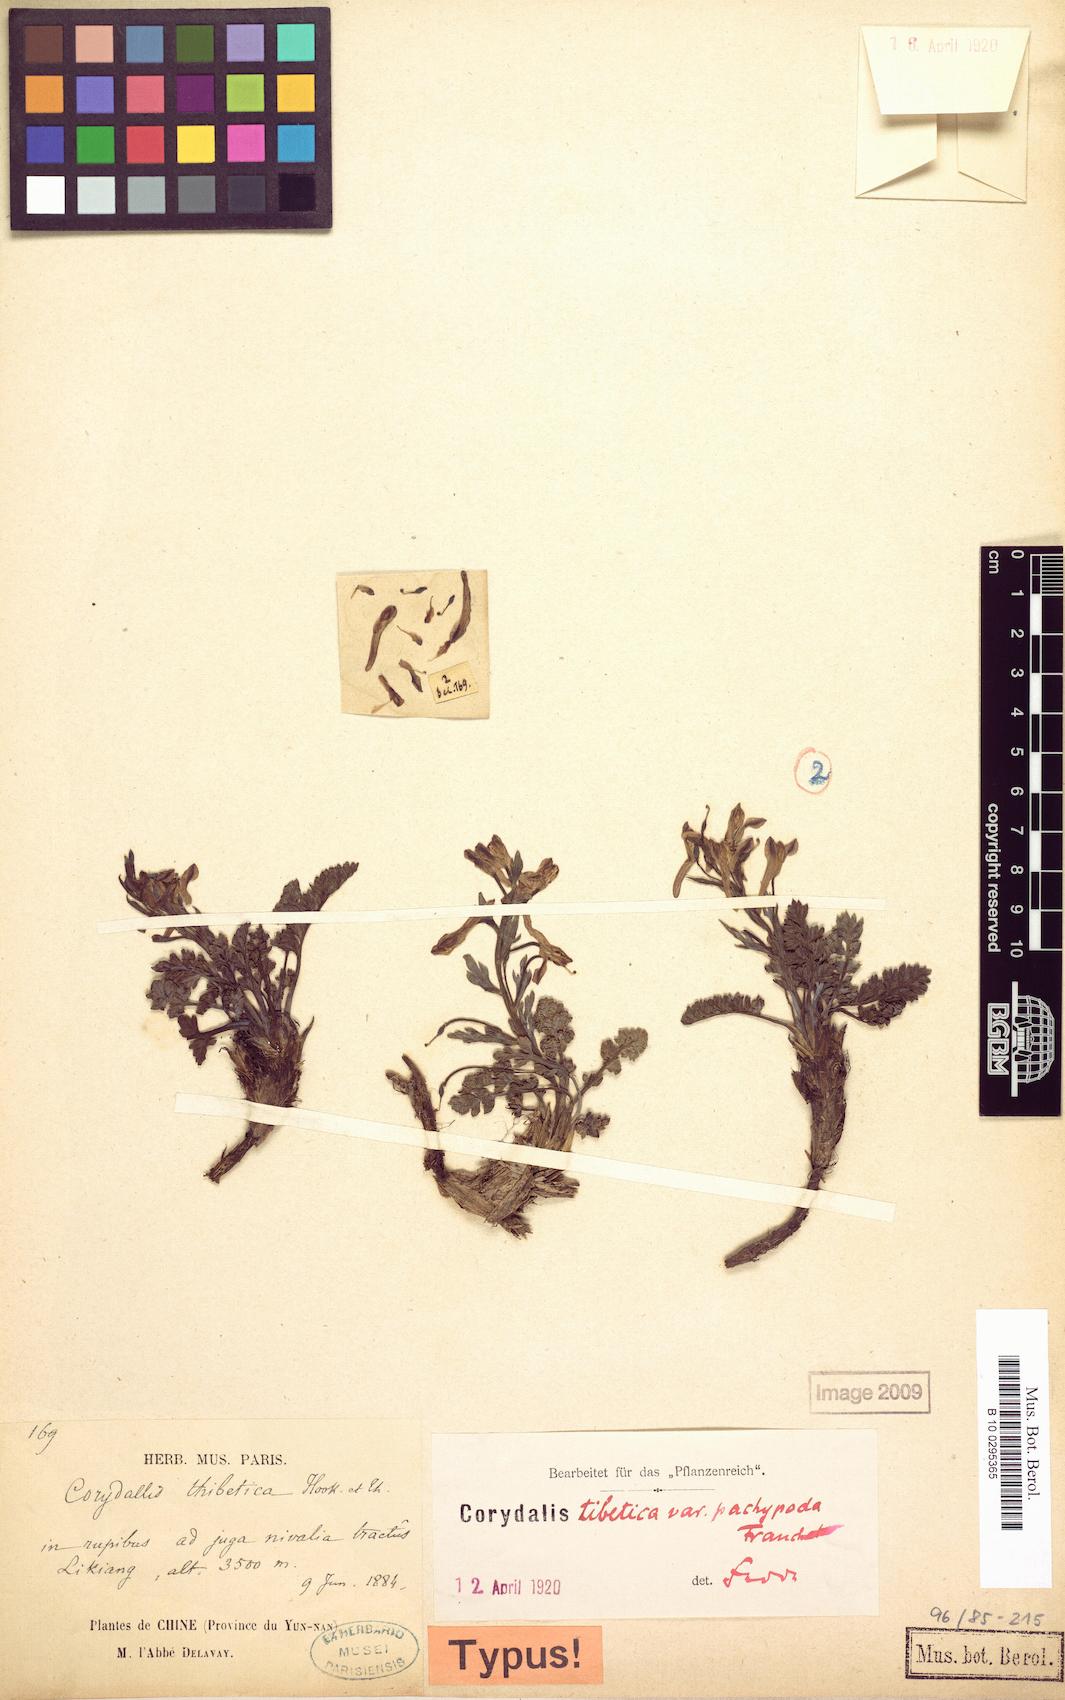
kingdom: Plantae
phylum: Tracheophyta
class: Magnoliopsida
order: Ranunculales
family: Papaveraceae
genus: Corydalis
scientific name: Corydalis pachypoda
